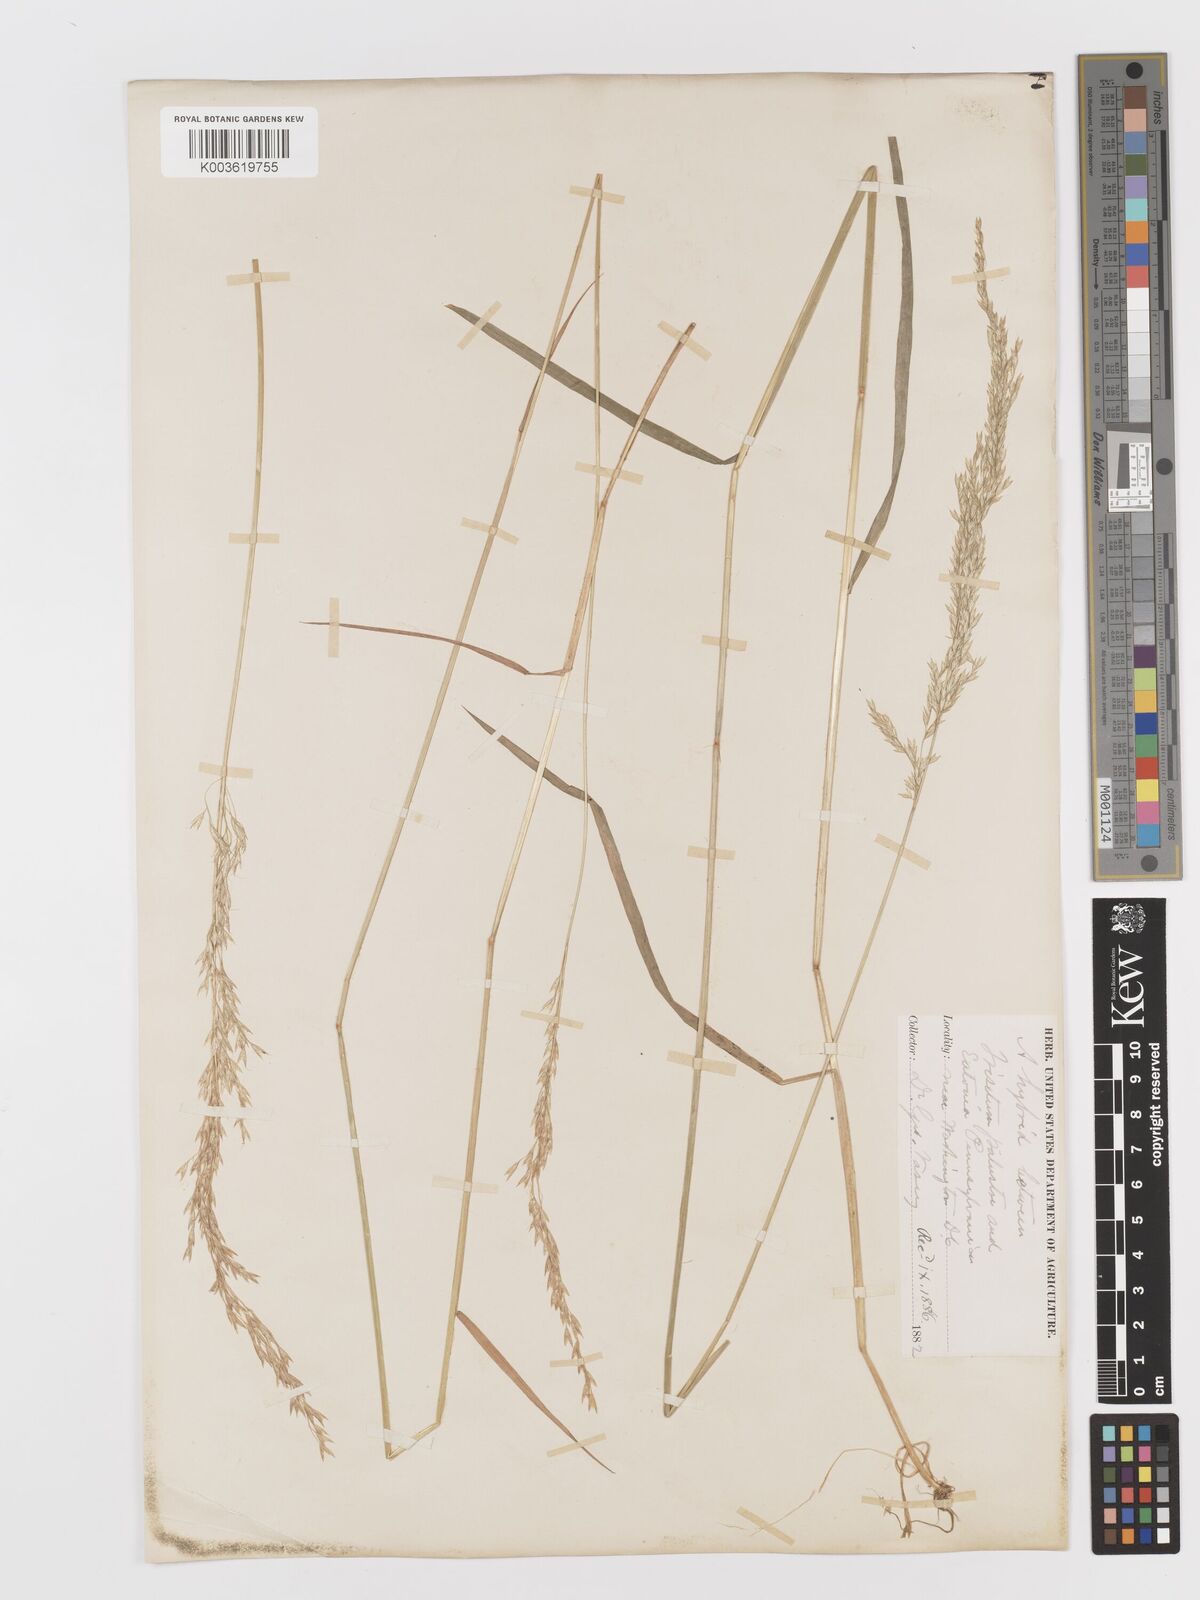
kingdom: Plantae
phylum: Tracheophyta
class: Liliopsida
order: Poales
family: Poaceae
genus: Sphenopholis
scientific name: Sphenopholis pensylvanica
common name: Swamp oats
